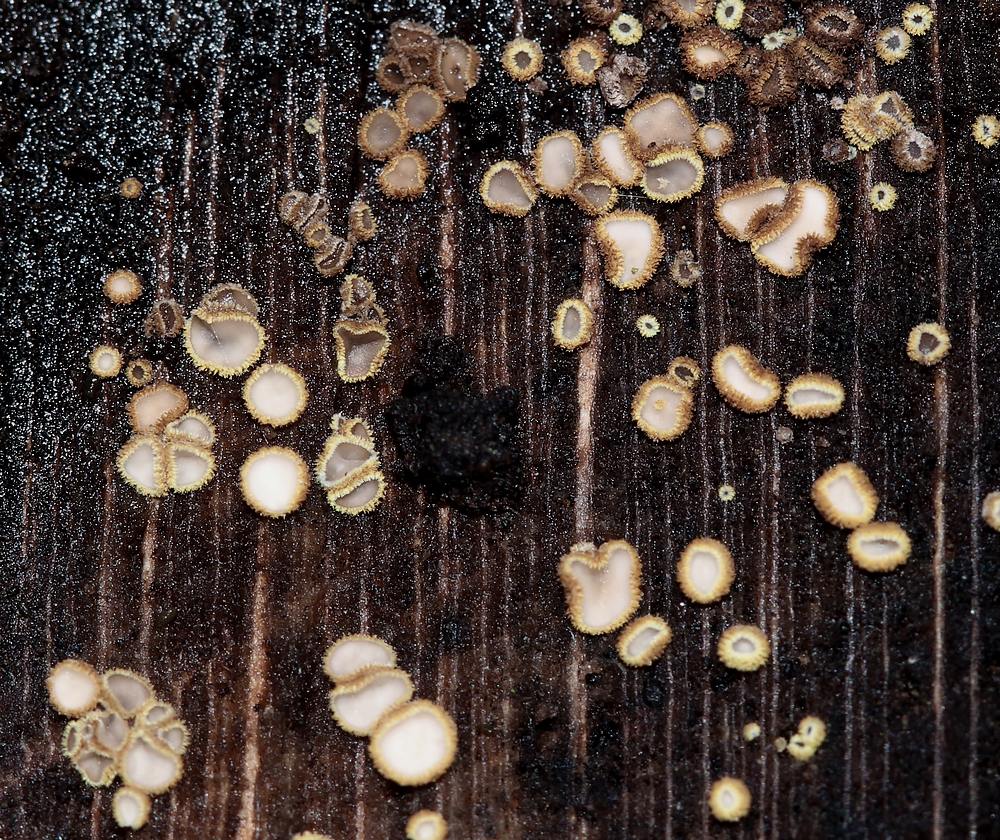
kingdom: Fungi
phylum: Ascomycota
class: Leotiomycetes
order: Helotiales
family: Lachnaceae
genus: Trichopeziza
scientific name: Trichopeziza subsulphurea
